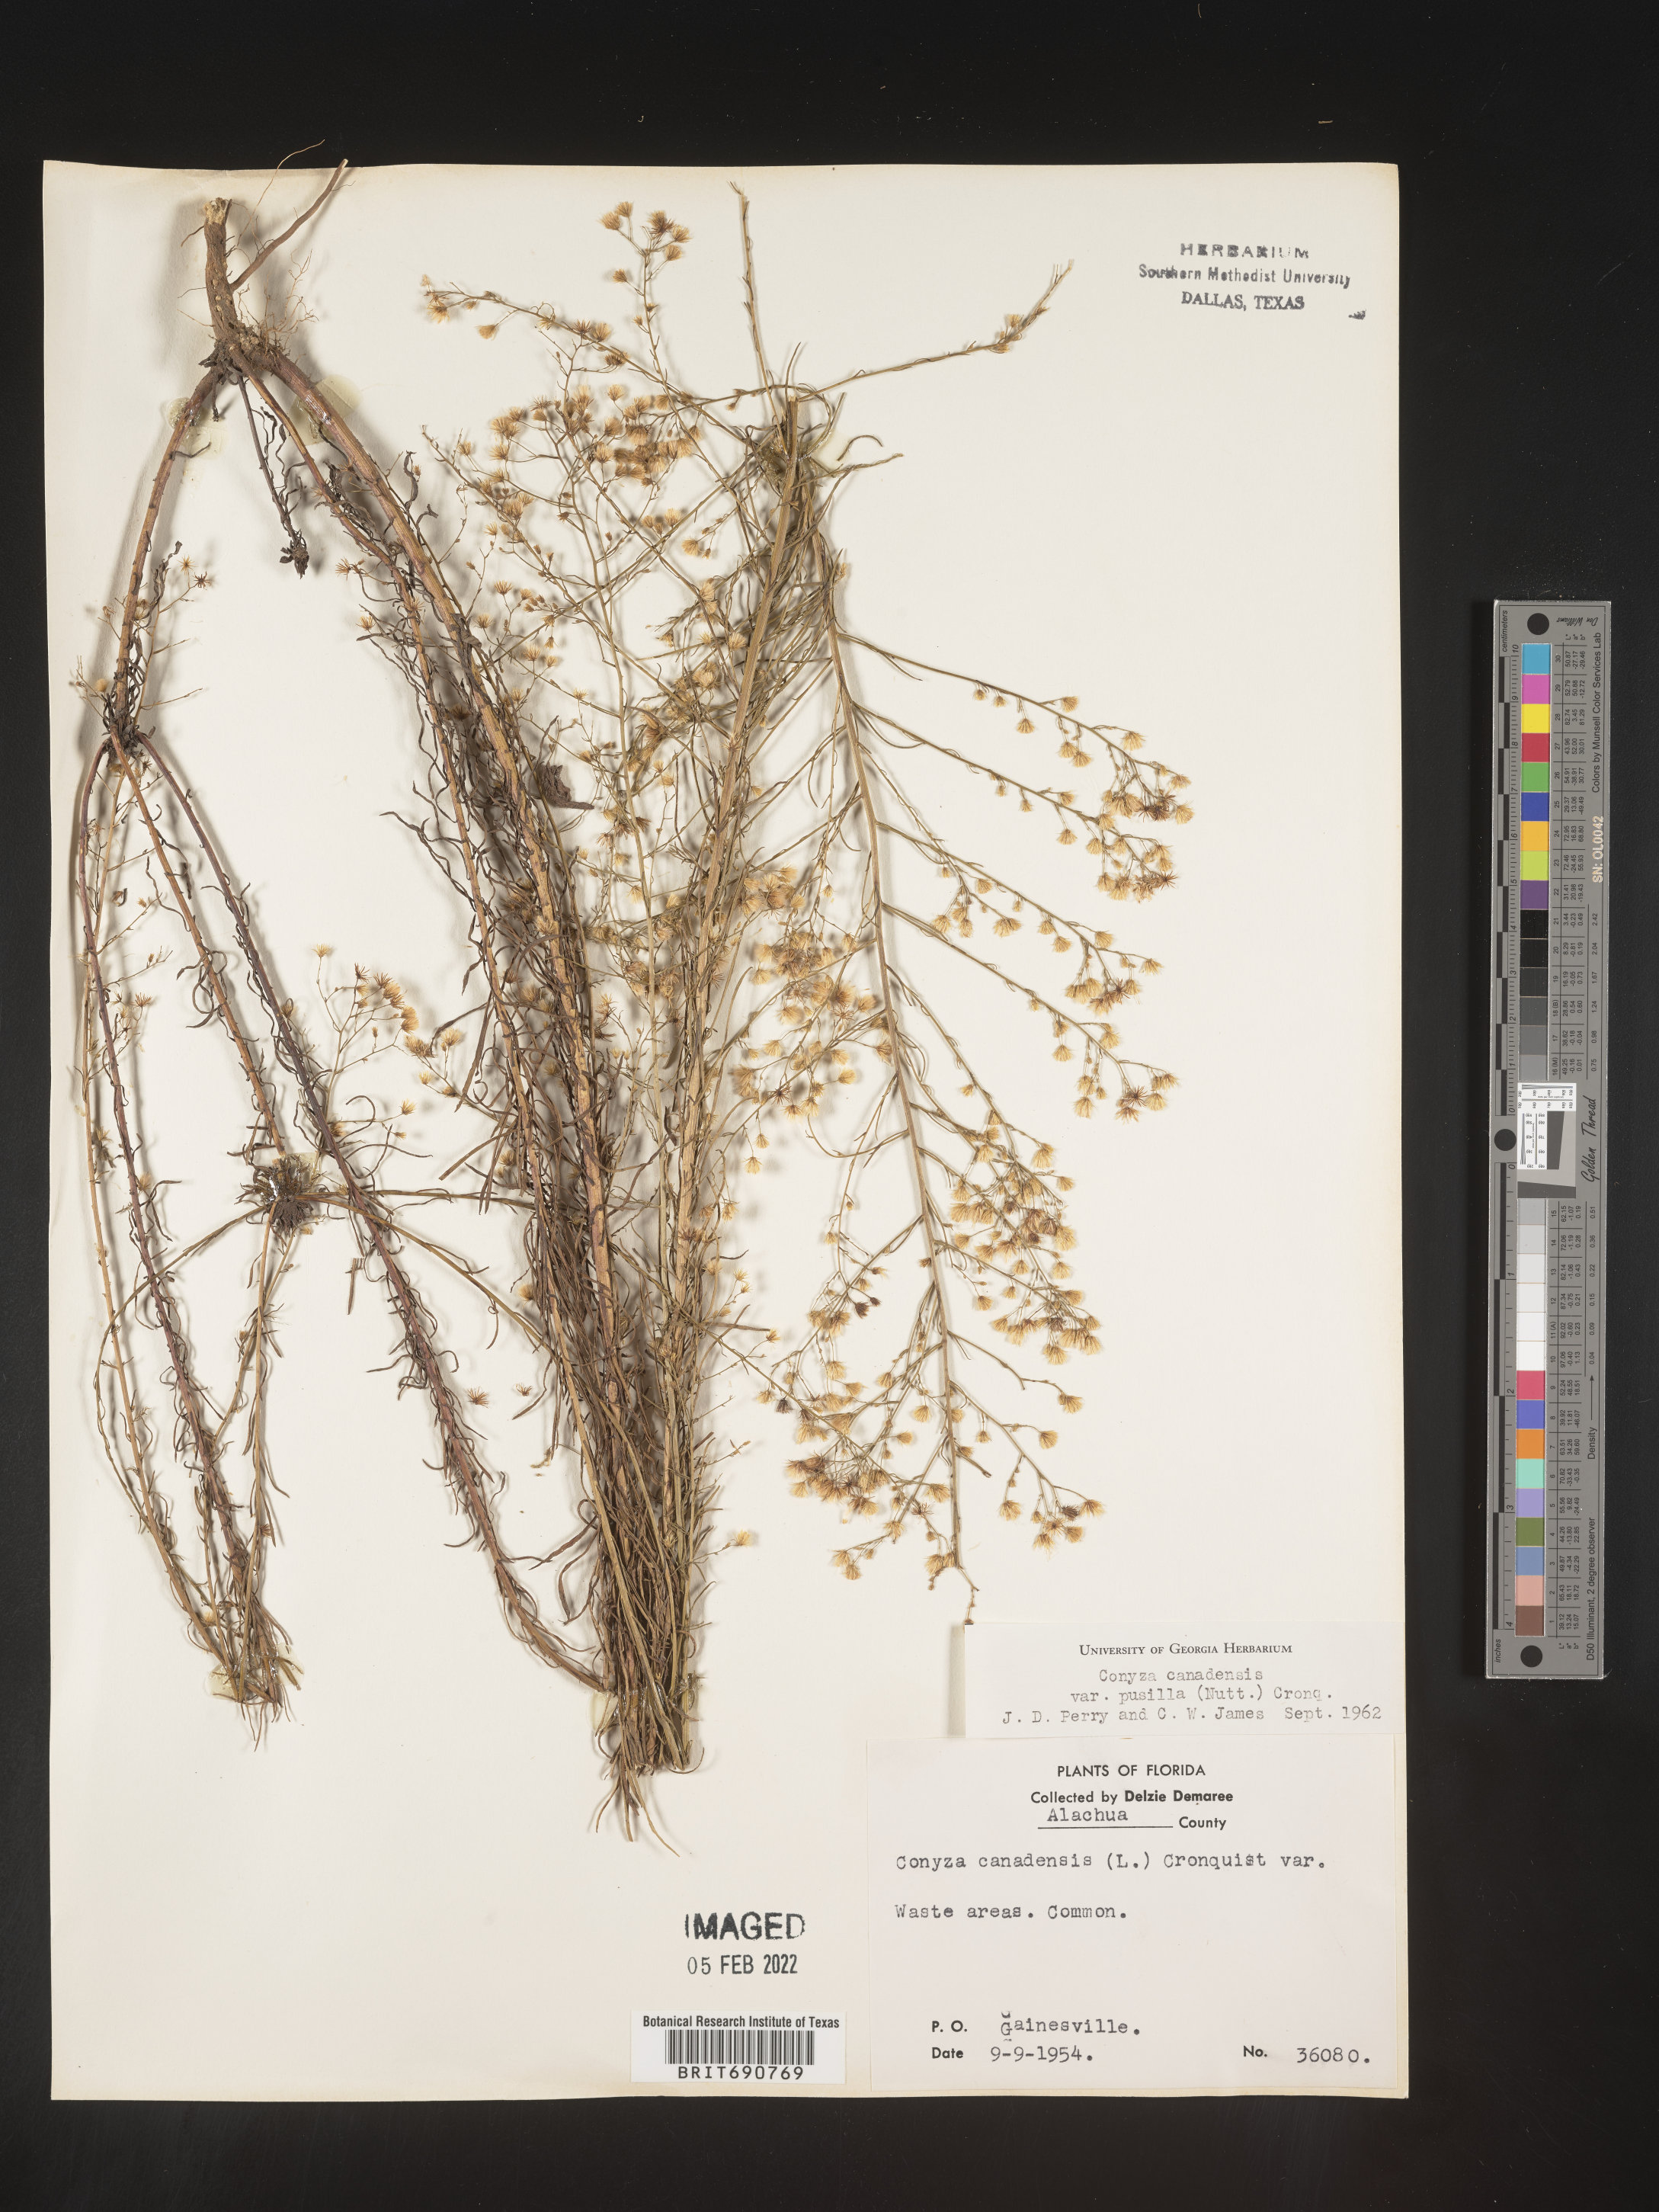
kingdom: Plantae
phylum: Tracheophyta
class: Magnoliopsida
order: Asterales
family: Asteraceae
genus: Erigeron
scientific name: Erigeron canadensis
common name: Canadian fleabane
